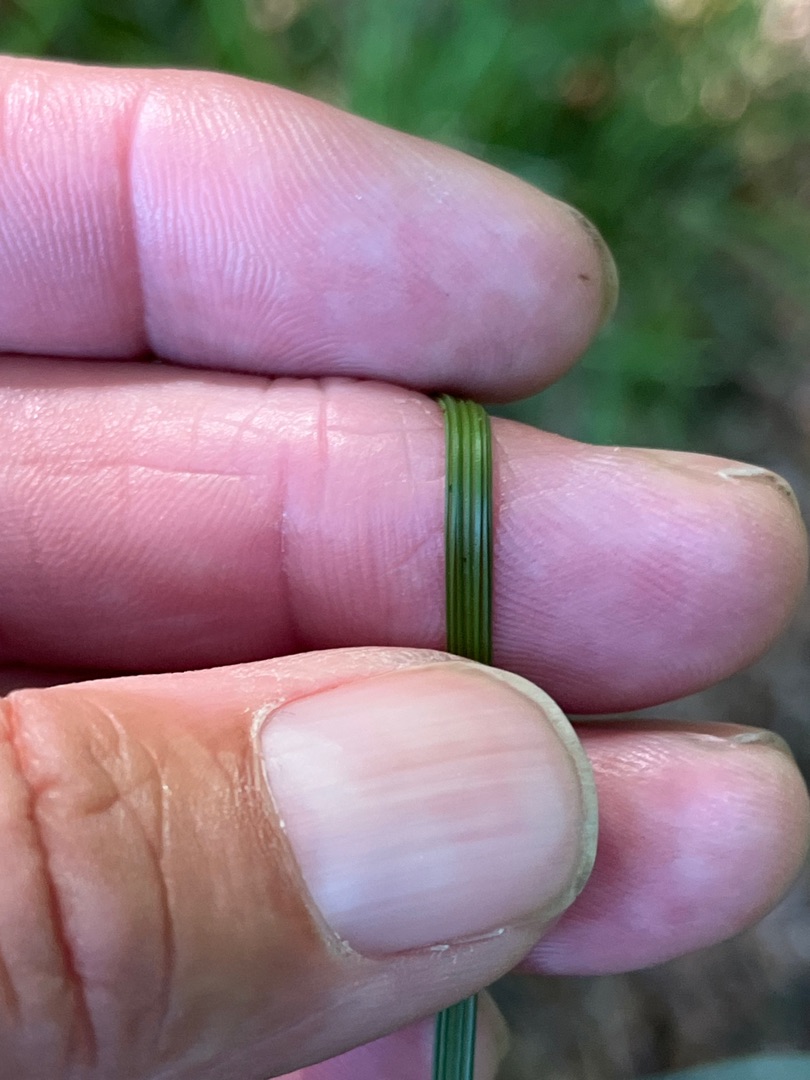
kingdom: Plantae
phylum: Tracheophyta
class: Liliopsida
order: Poales
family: Poaceae
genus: Deschampsia
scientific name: Deschampsia cespitosa
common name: Mose-bunke
